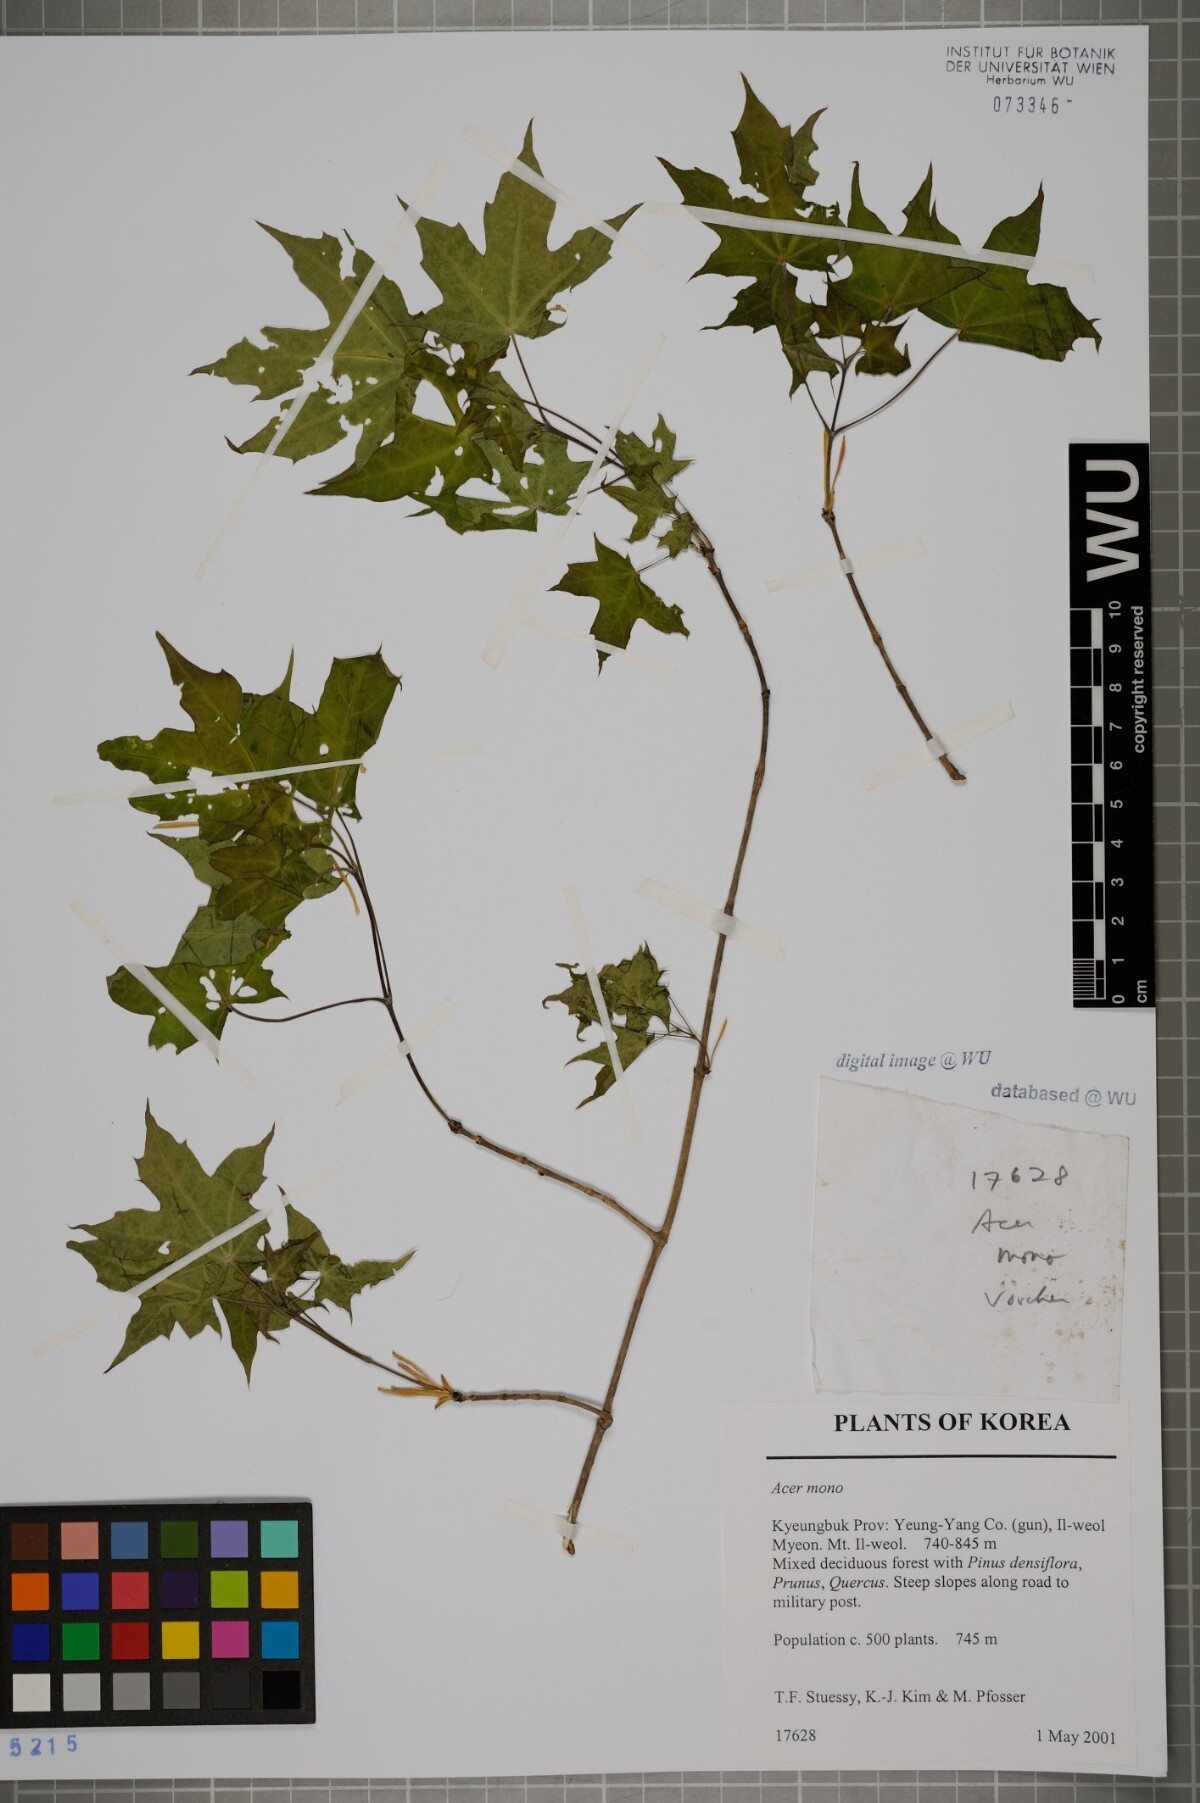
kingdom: Plantae
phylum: Tracheophyta
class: Magnoliopsida
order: Sapindales
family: Sapindaceae
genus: Acer
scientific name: Acer pictum
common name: The painted maple
